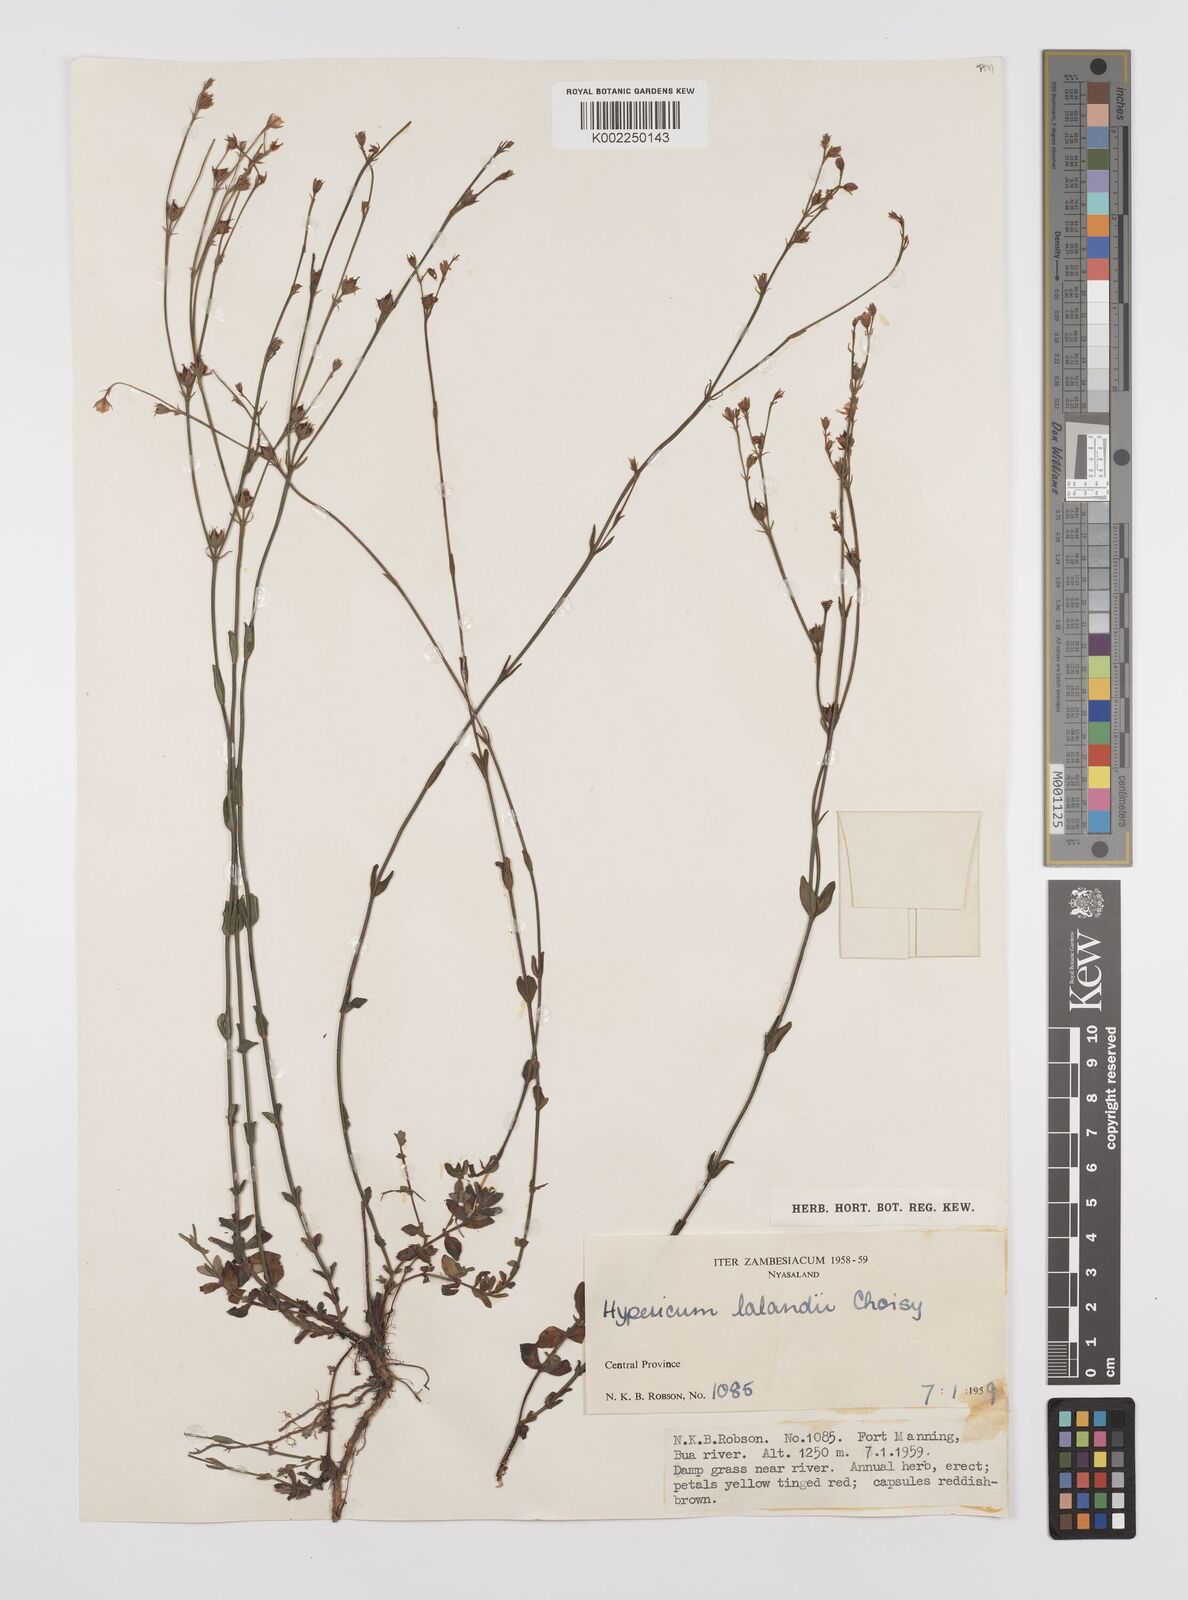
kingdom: Plantae
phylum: Tracheophyta
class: Magnoliopsida
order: Malpighiales
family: Hypericaceae
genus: Hypericum
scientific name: Hypericum lalandii
